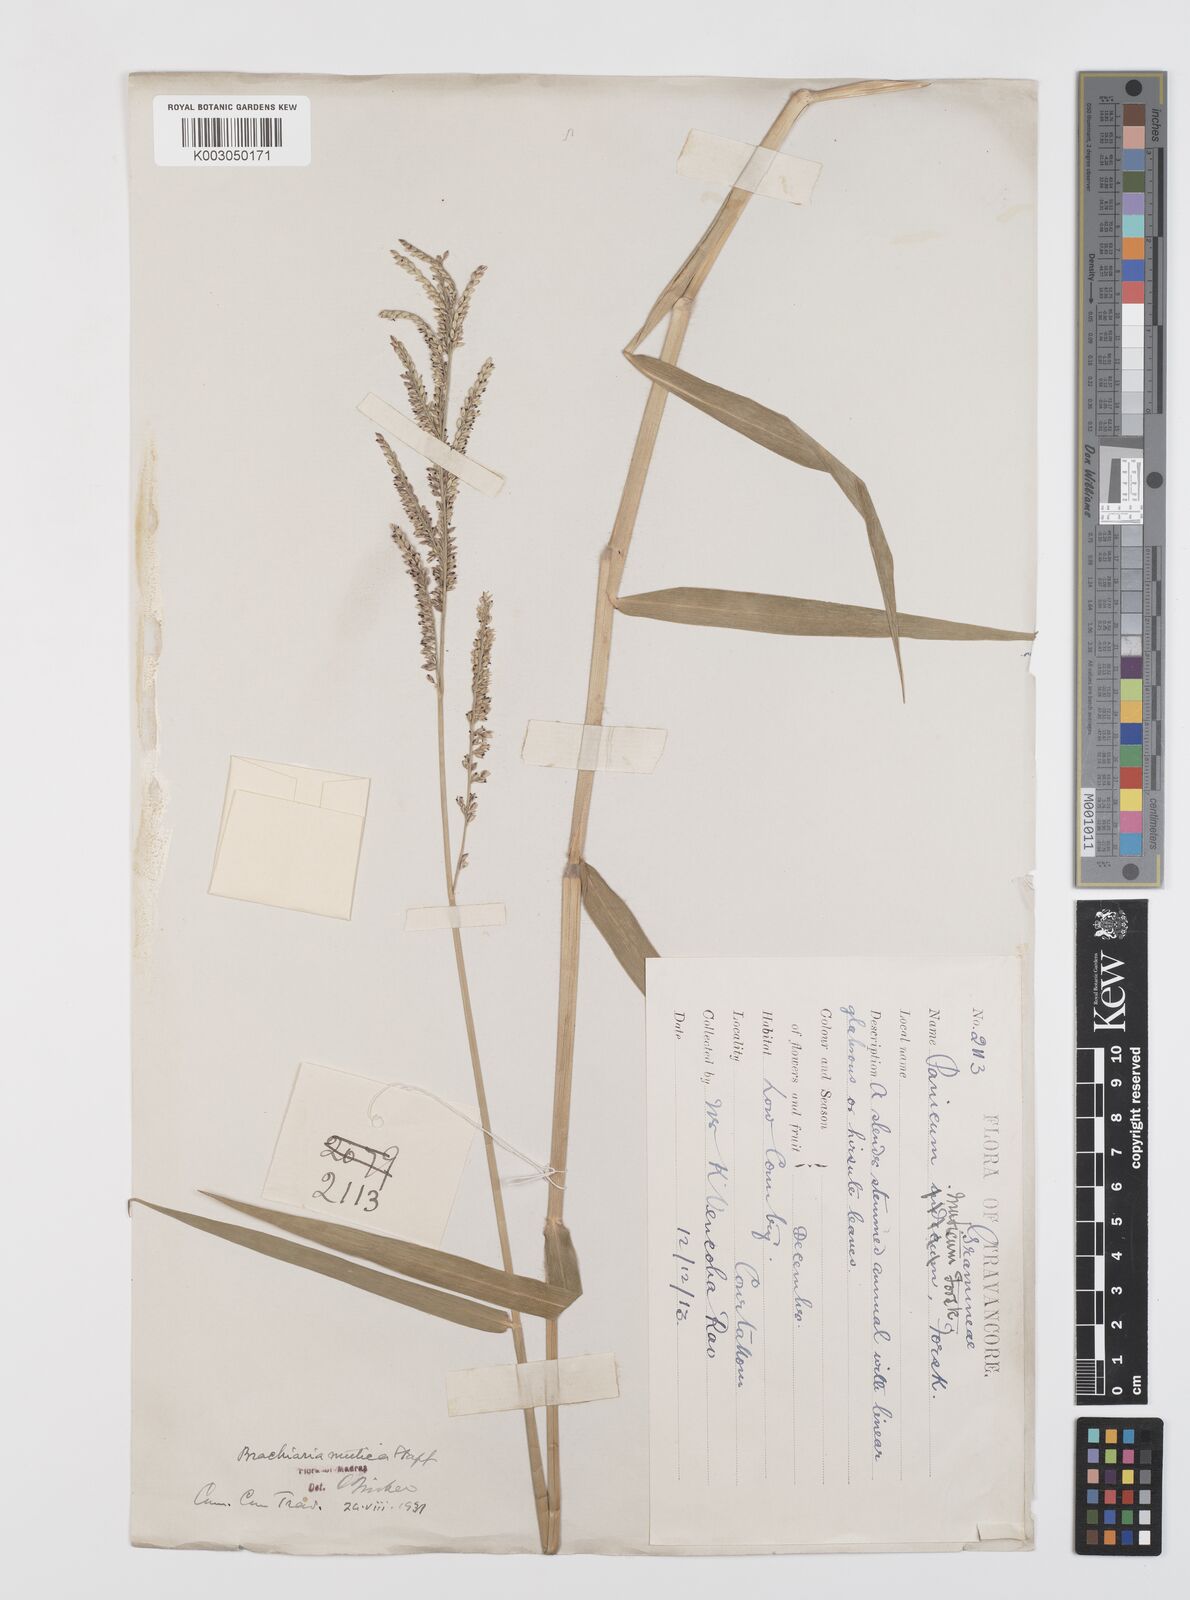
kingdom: Plantae
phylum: Tracheophyta
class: Liliopsida
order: Poales
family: Poaceae
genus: Urochloa
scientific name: Urochloa mutica
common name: Para grass
